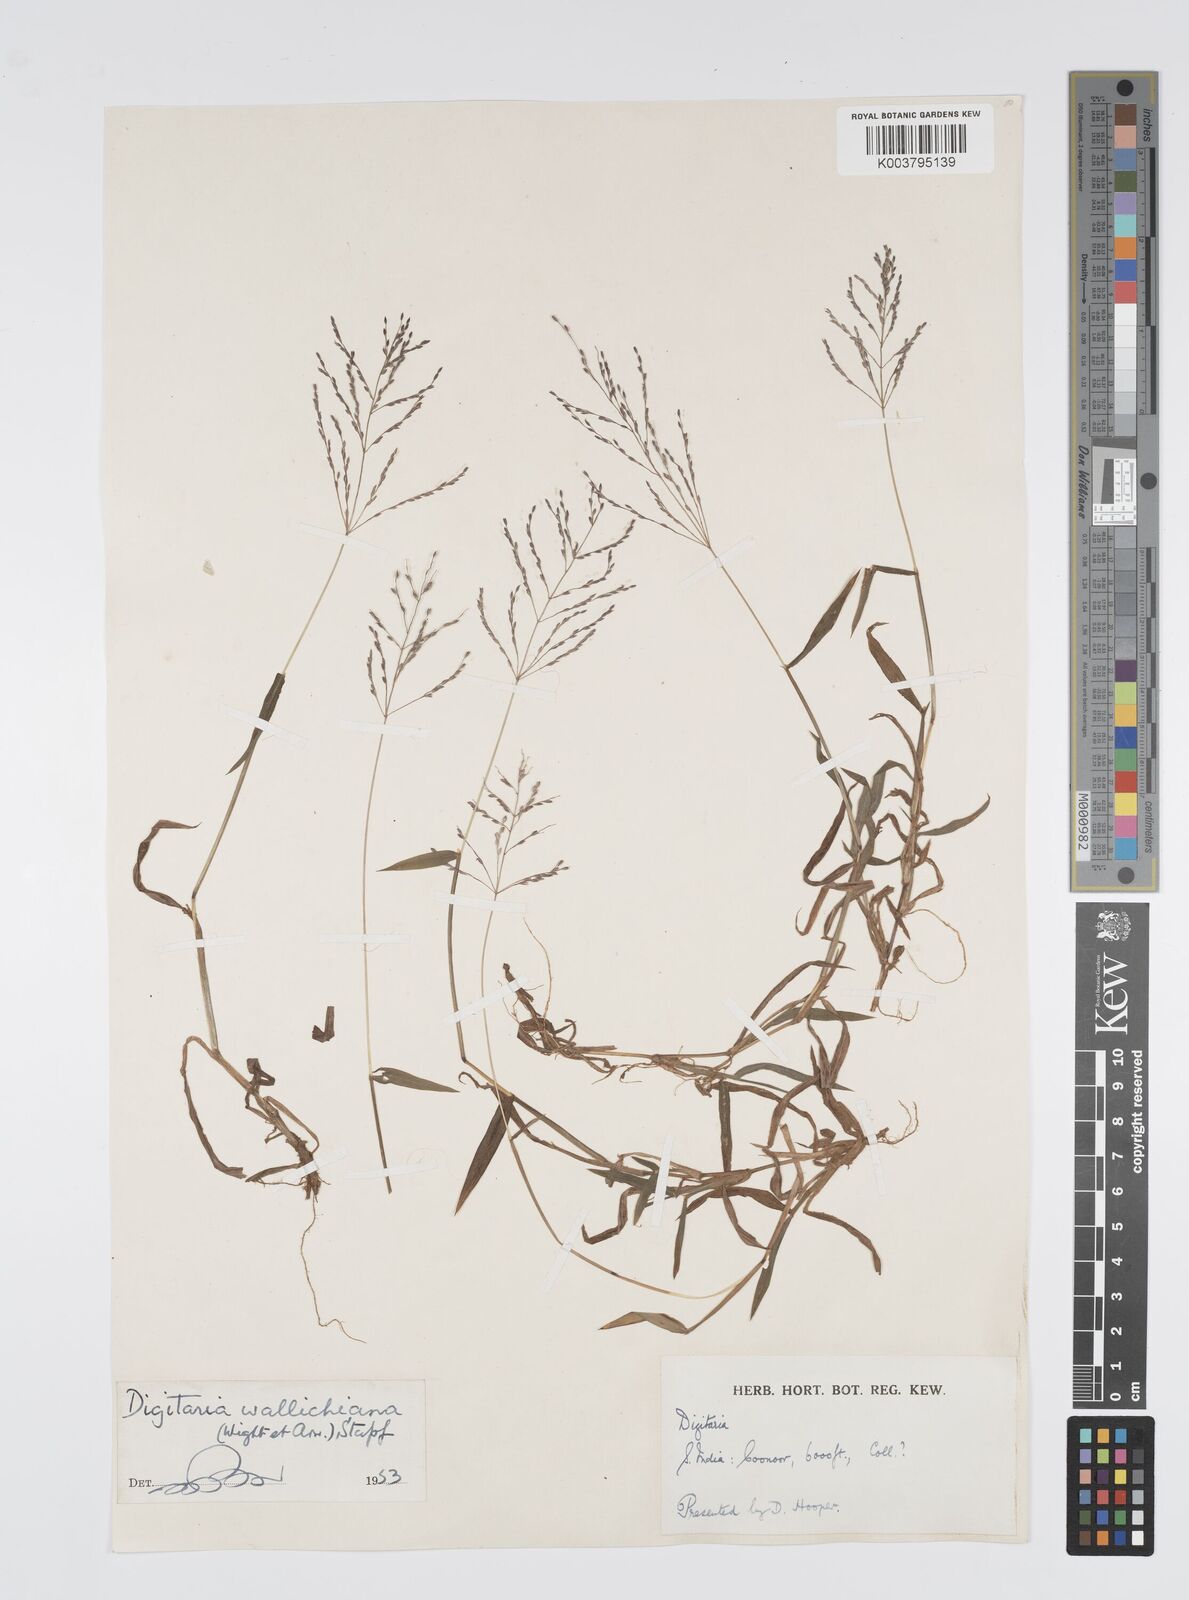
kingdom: Plantae
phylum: Tracheophyta
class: Liliopsida
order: Poales
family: Poaceae
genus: Digitaria
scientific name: Digitaria wallichiana
